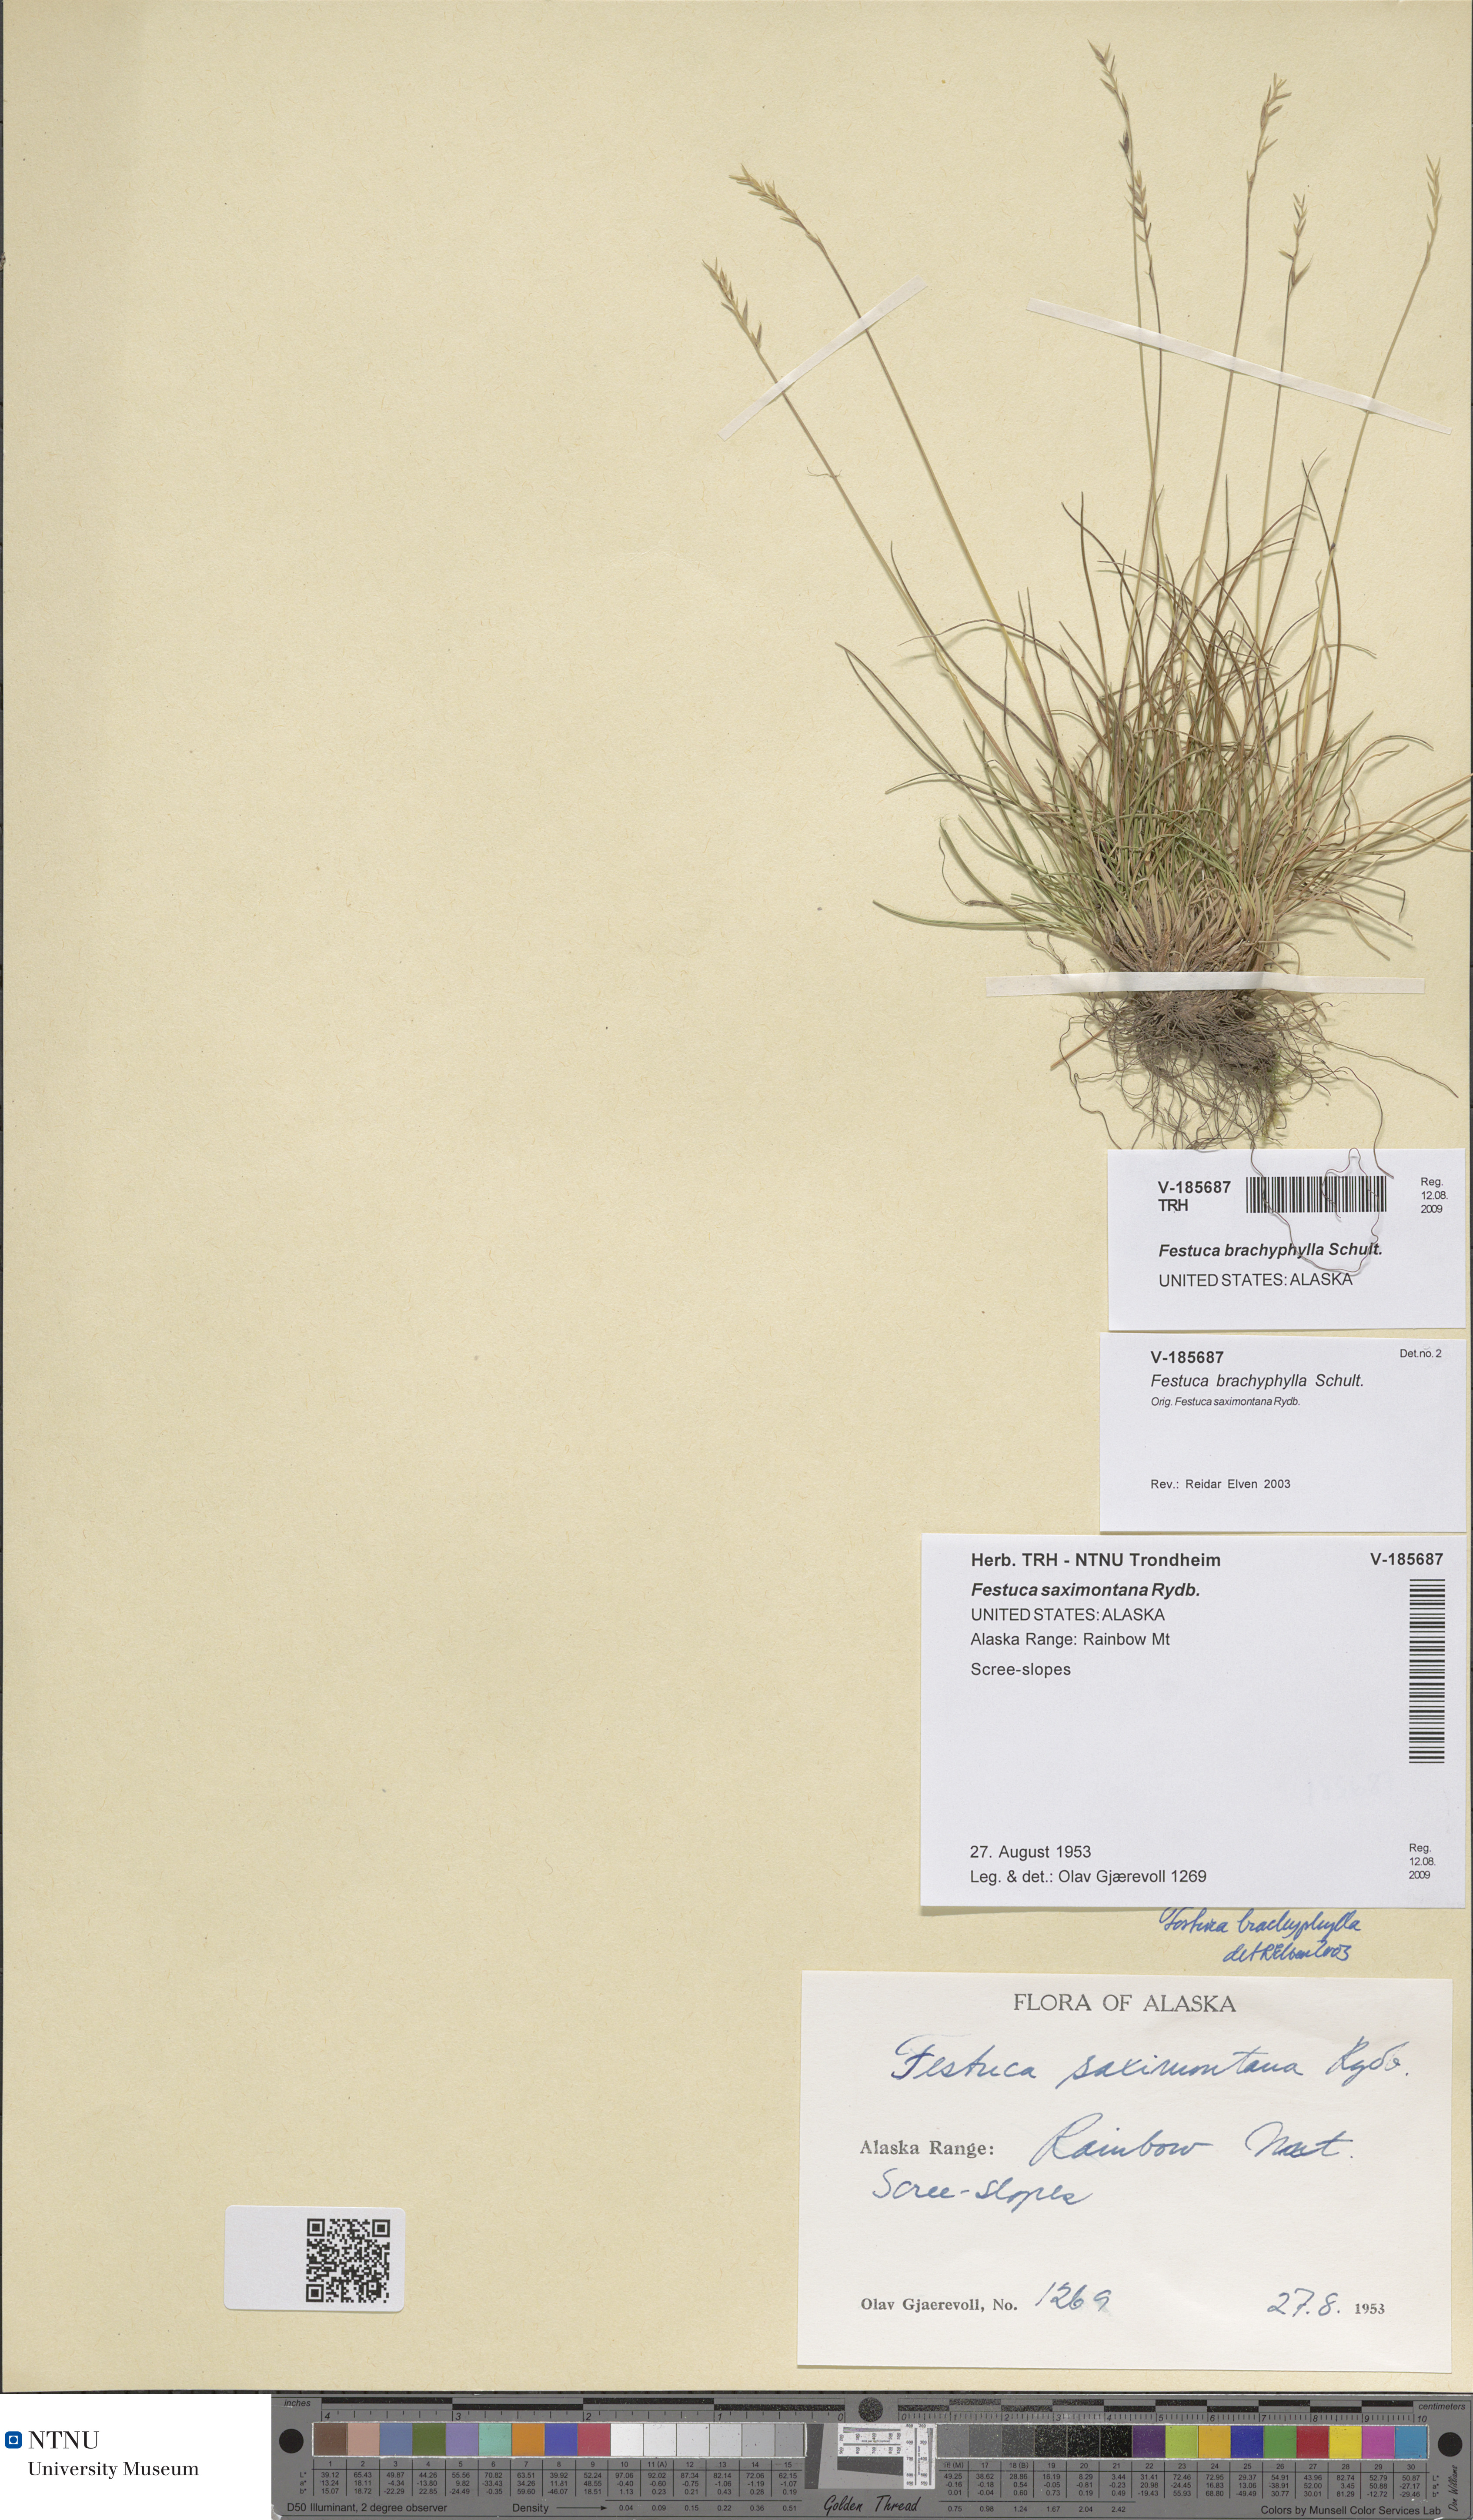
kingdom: Plantae
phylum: Tracheophyta
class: Liliopsida
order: Poales
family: Poaceae
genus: Festuca
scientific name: Festuca brachyphylla
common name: Alpine fescue
